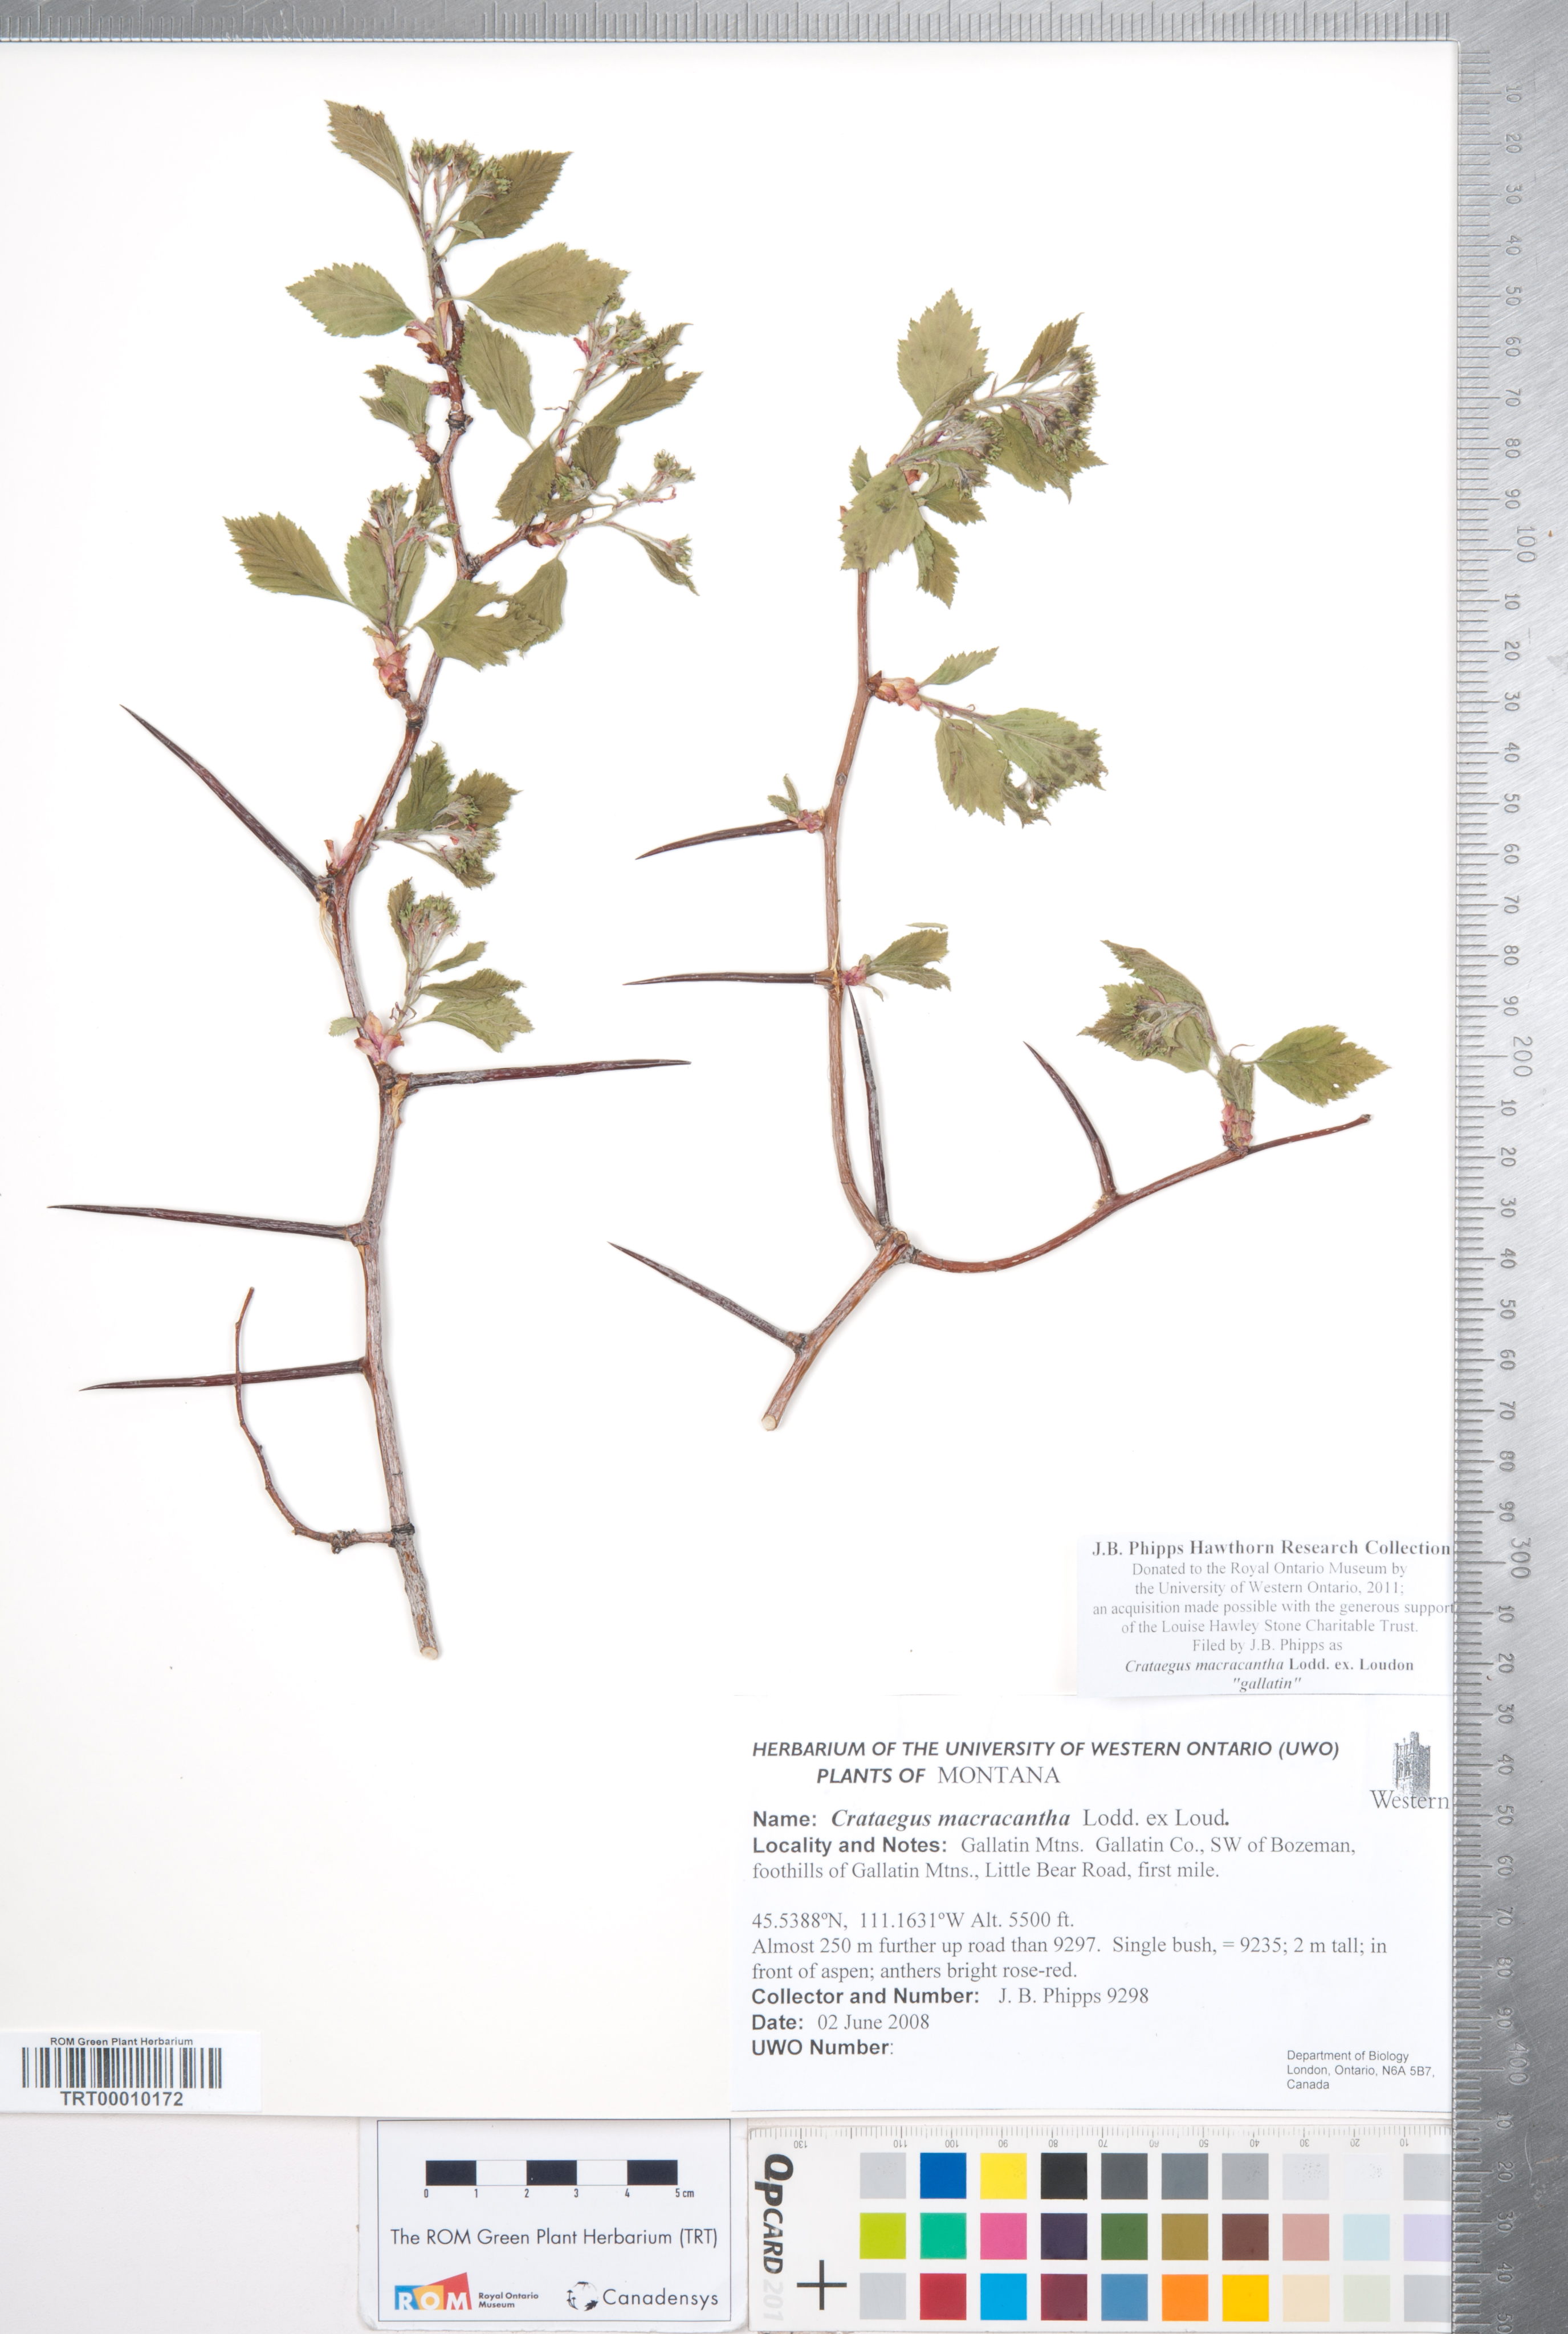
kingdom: Plantae
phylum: Tracheophyta
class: Magnoliopsida
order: Rosales
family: Rosaceae
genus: Crataegus
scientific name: Crataegus macracantha
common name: Large-thorn hawthorn
